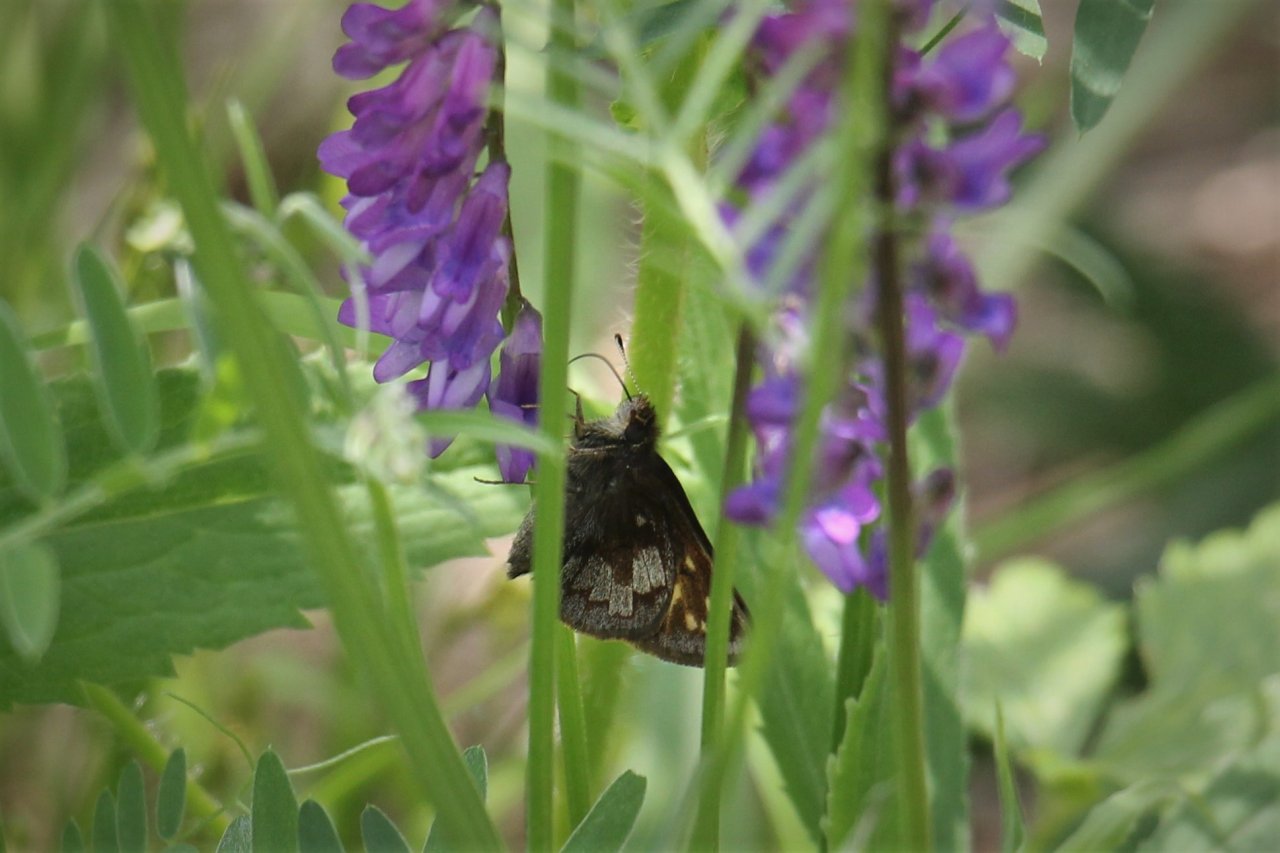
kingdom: Animalia
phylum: Arthropoda
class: Insecta
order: Lepidoptera
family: Hesperiidae
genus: Lon
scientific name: Lon hobomok
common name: Hobomok Skipper
